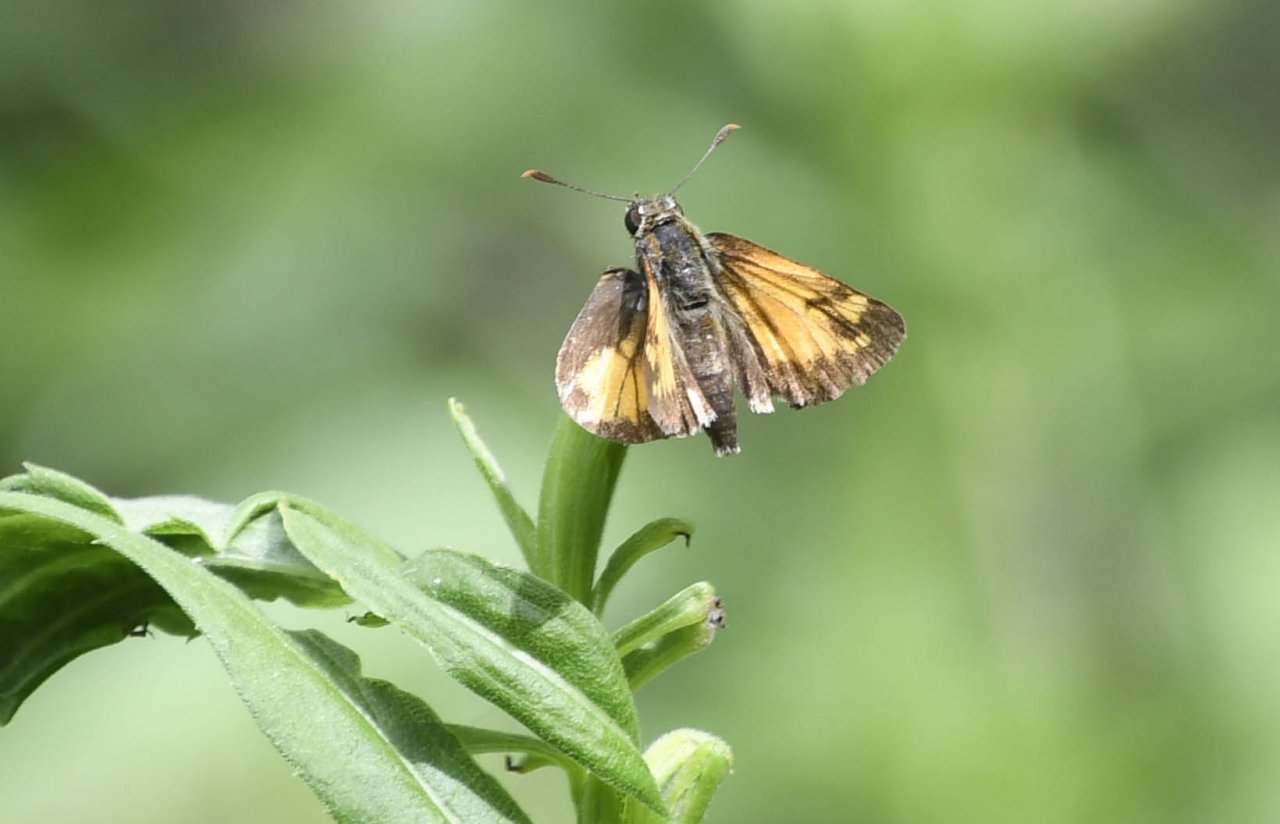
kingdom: Animalia
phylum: Arthropoda
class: Insecta
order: Lepidoptera
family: Hesperiidae
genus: Lon
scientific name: Lon hobomok
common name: Hobomok Skipper
